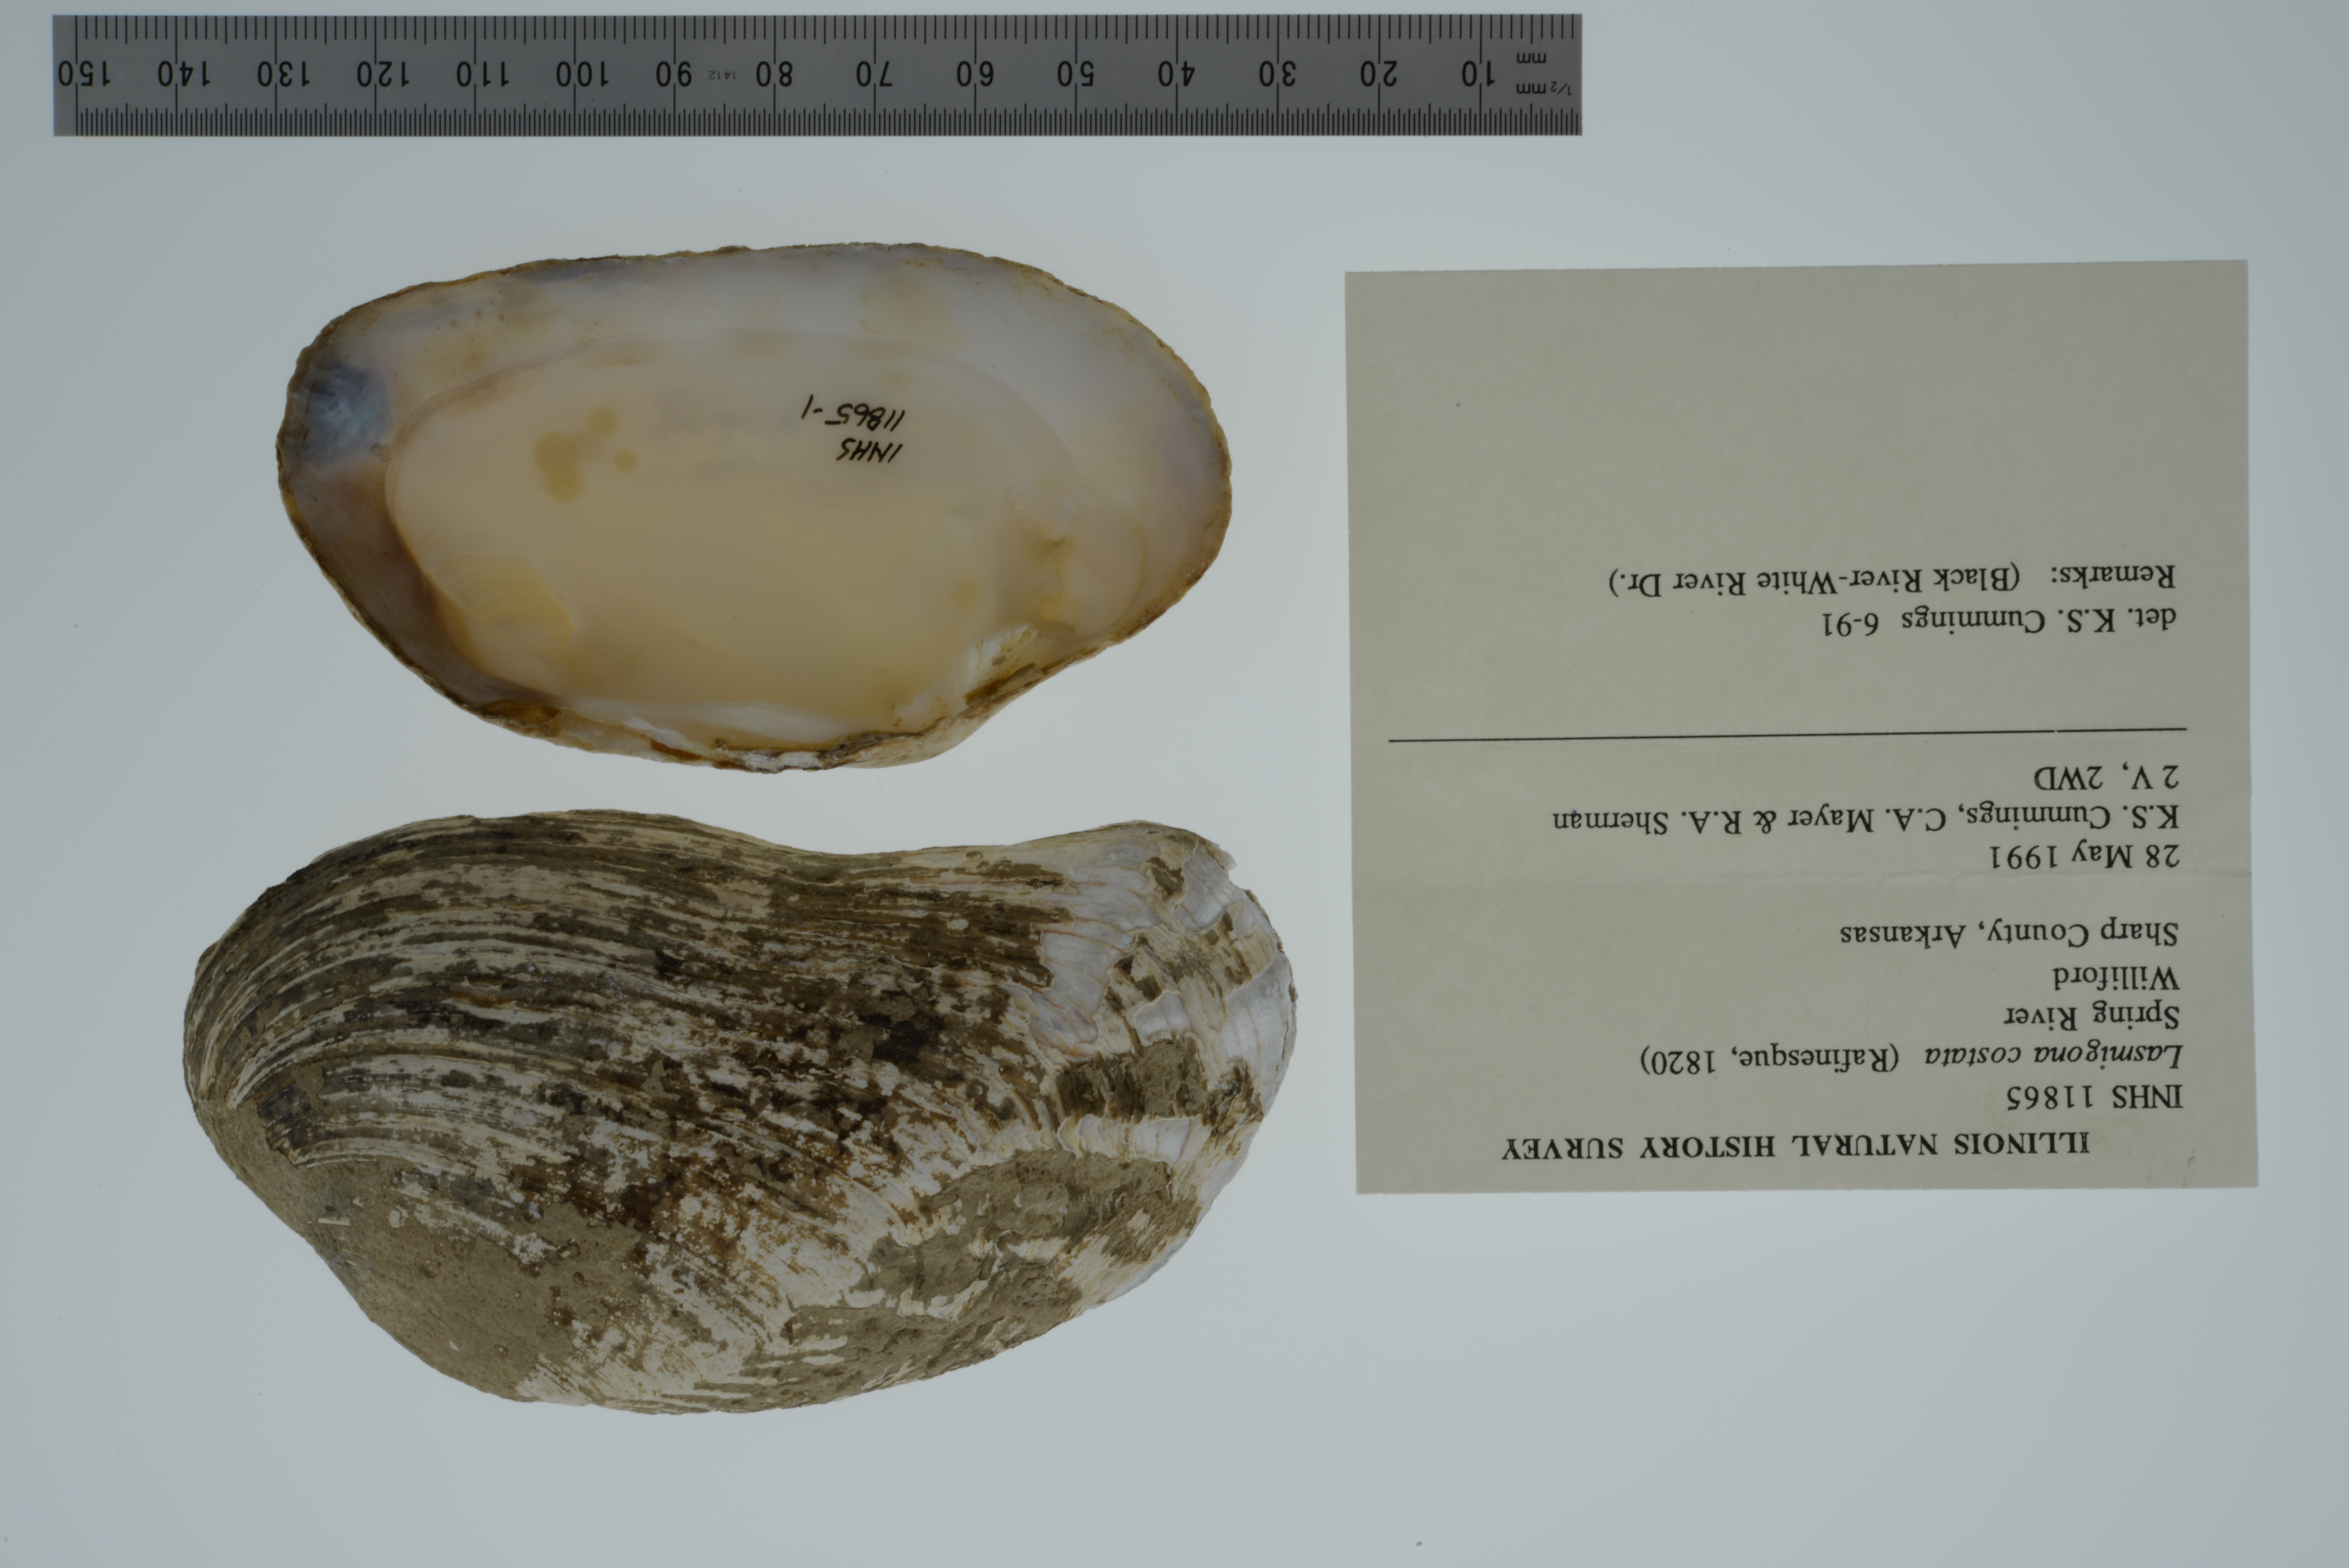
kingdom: Animalia
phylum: Mollusca
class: Bivalvia
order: Unionida
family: Unionidae
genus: Lasmigona
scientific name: Lasmigona costata
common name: Flutedshell
